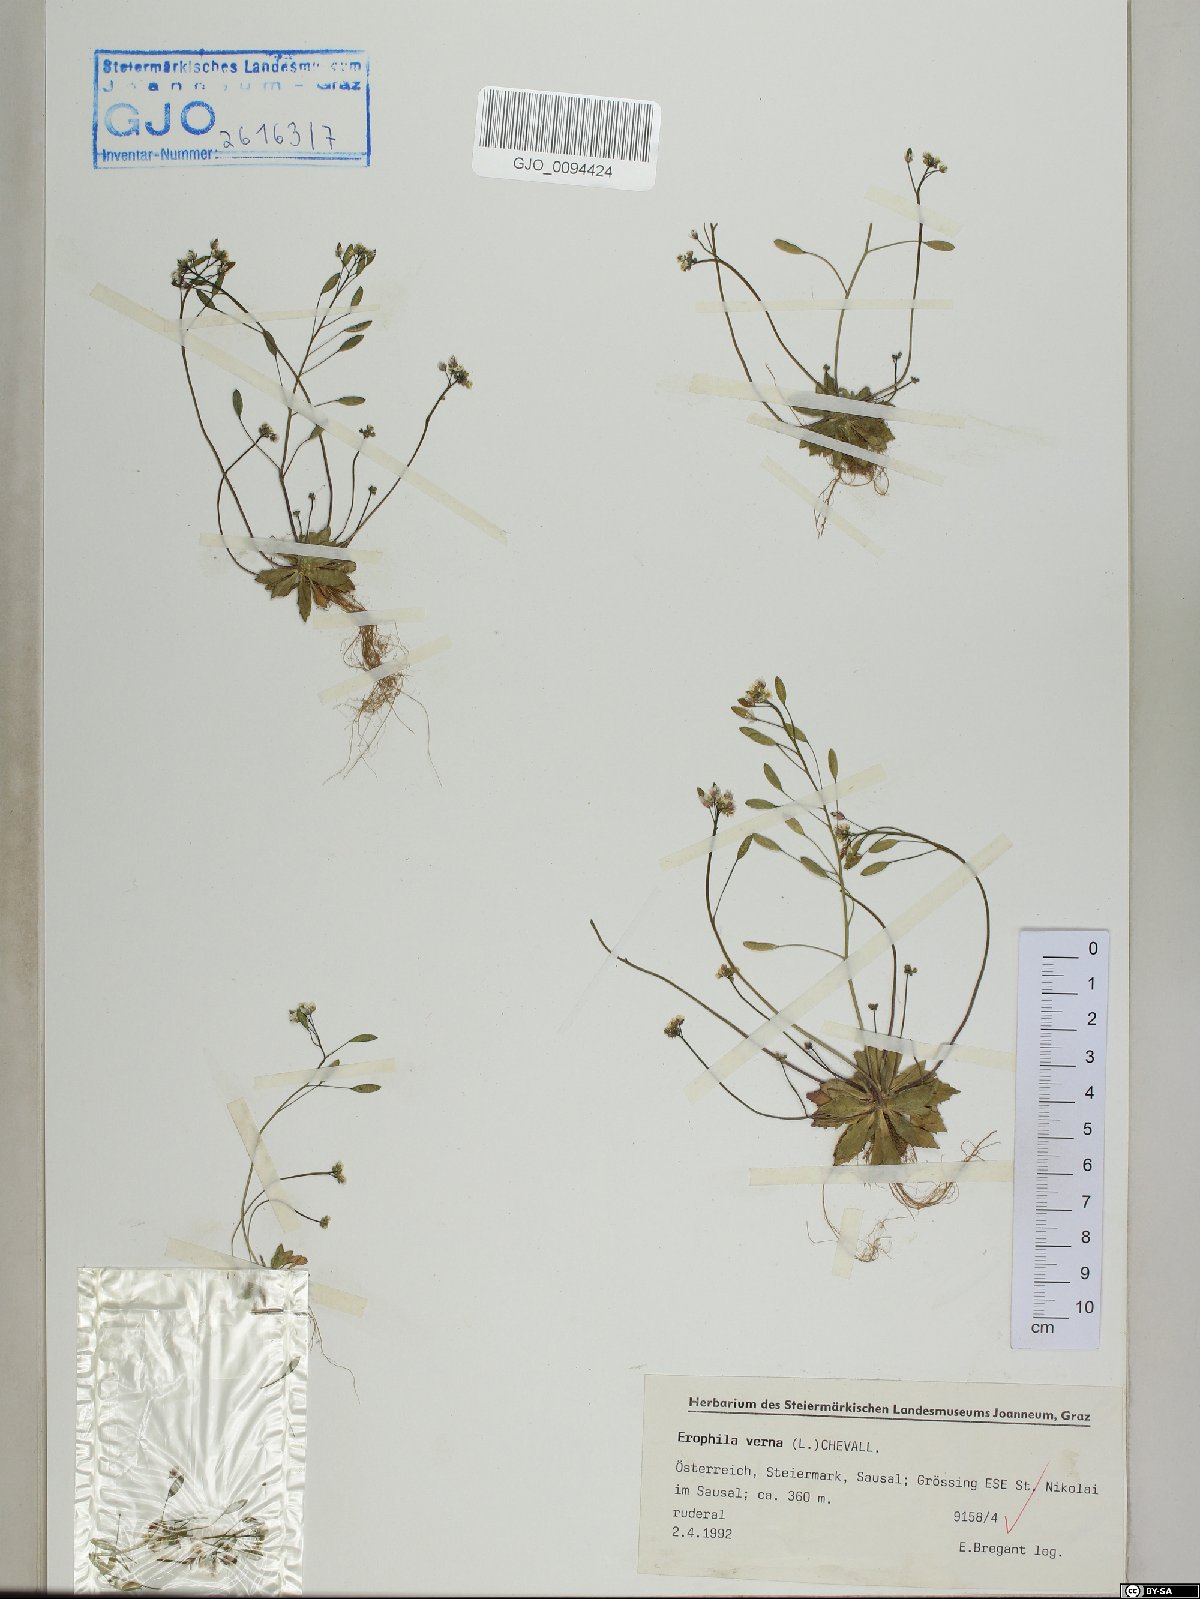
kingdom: Plantae
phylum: Tracheophyta
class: Magnoliopsida
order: Brassicales
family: Brassicaceae
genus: Draba
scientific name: Draba verna
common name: Spring draba
